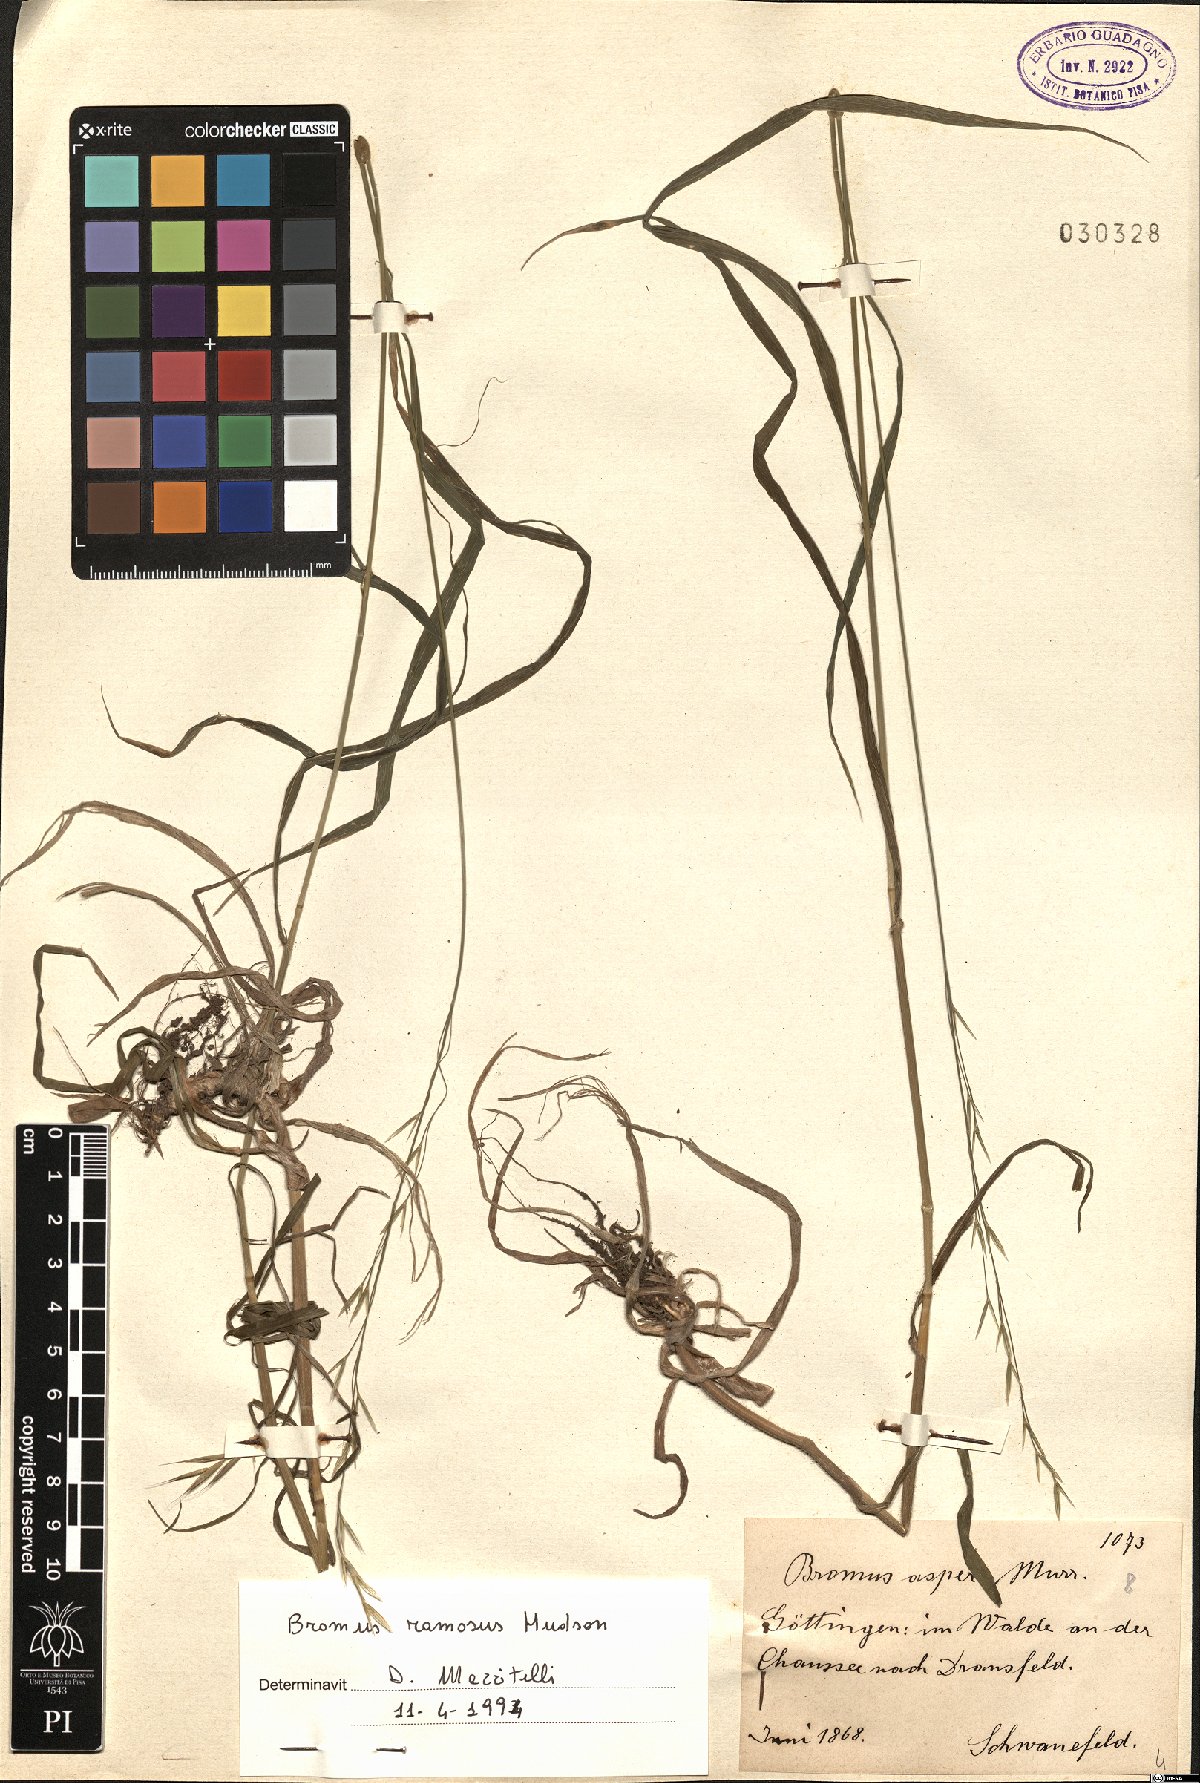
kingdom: Plantae
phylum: Tracheophyta
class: Liliopsida
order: Poales
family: Poaceae
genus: Bromus
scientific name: Bromus ramosus
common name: Hairy brome
